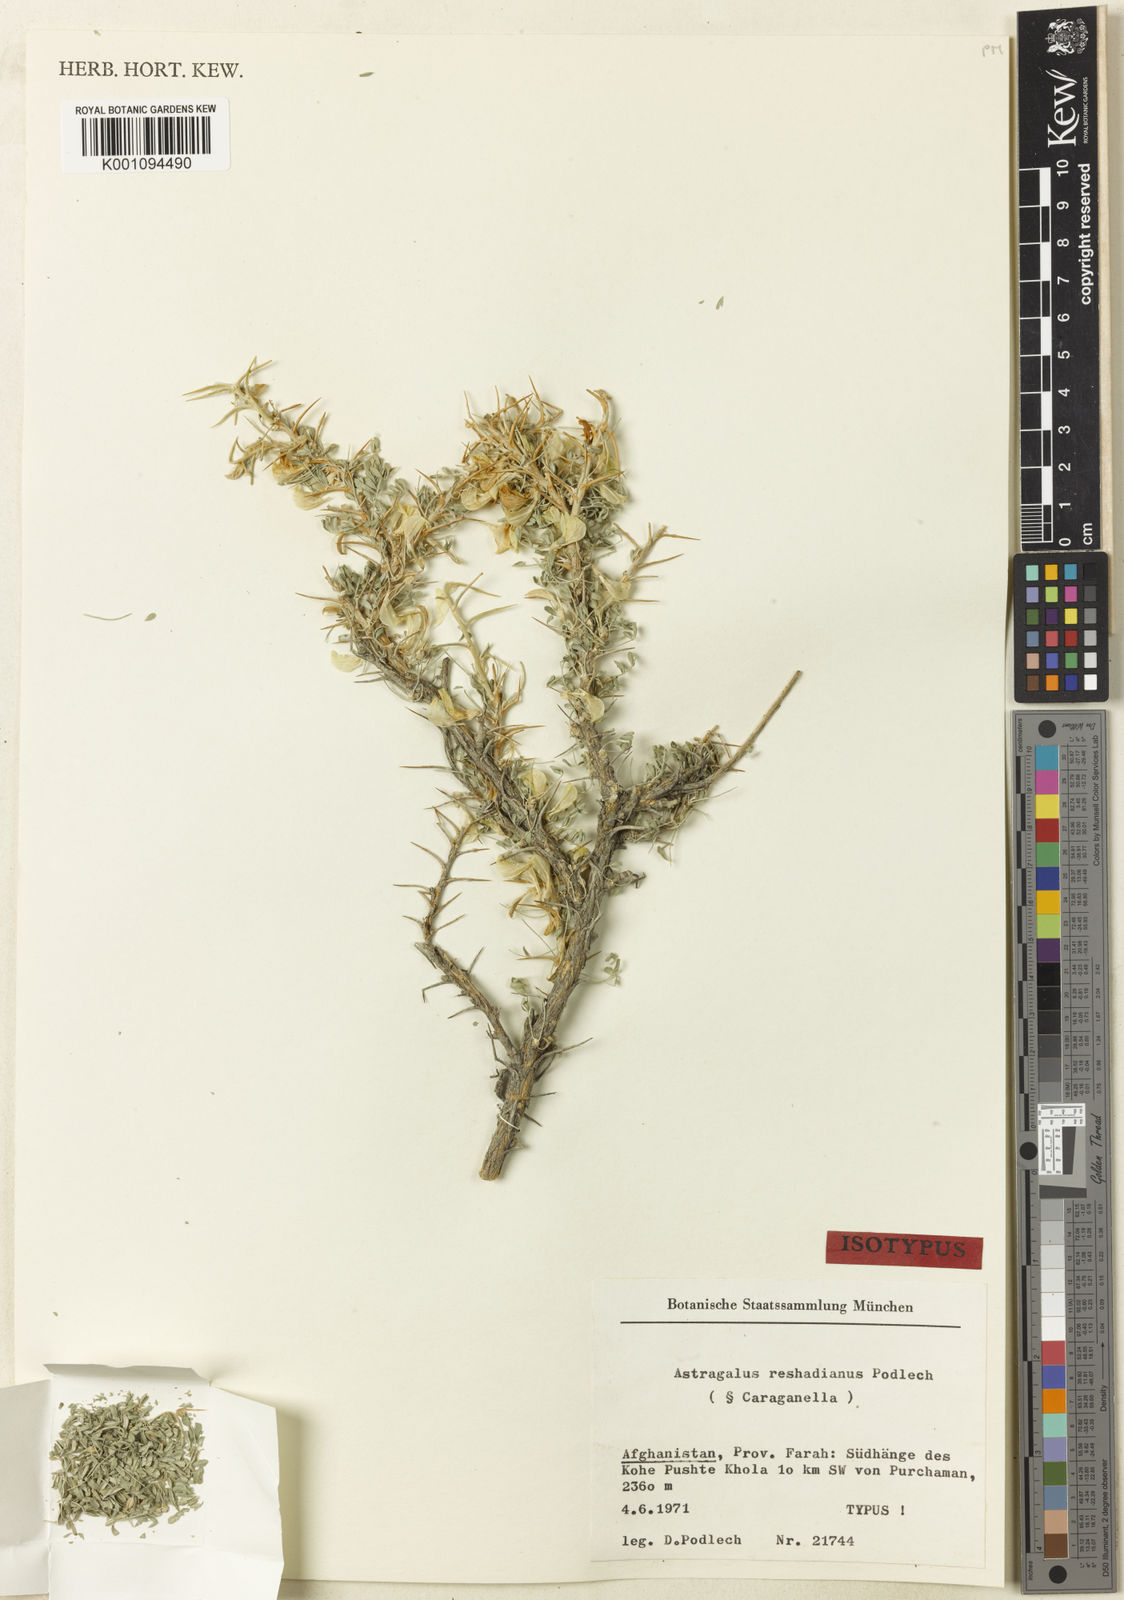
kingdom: Plantae
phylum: Tracheophyta
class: Magnoliopsida
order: Fabales
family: Fabaceae
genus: Astragalus
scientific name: Astragalus
